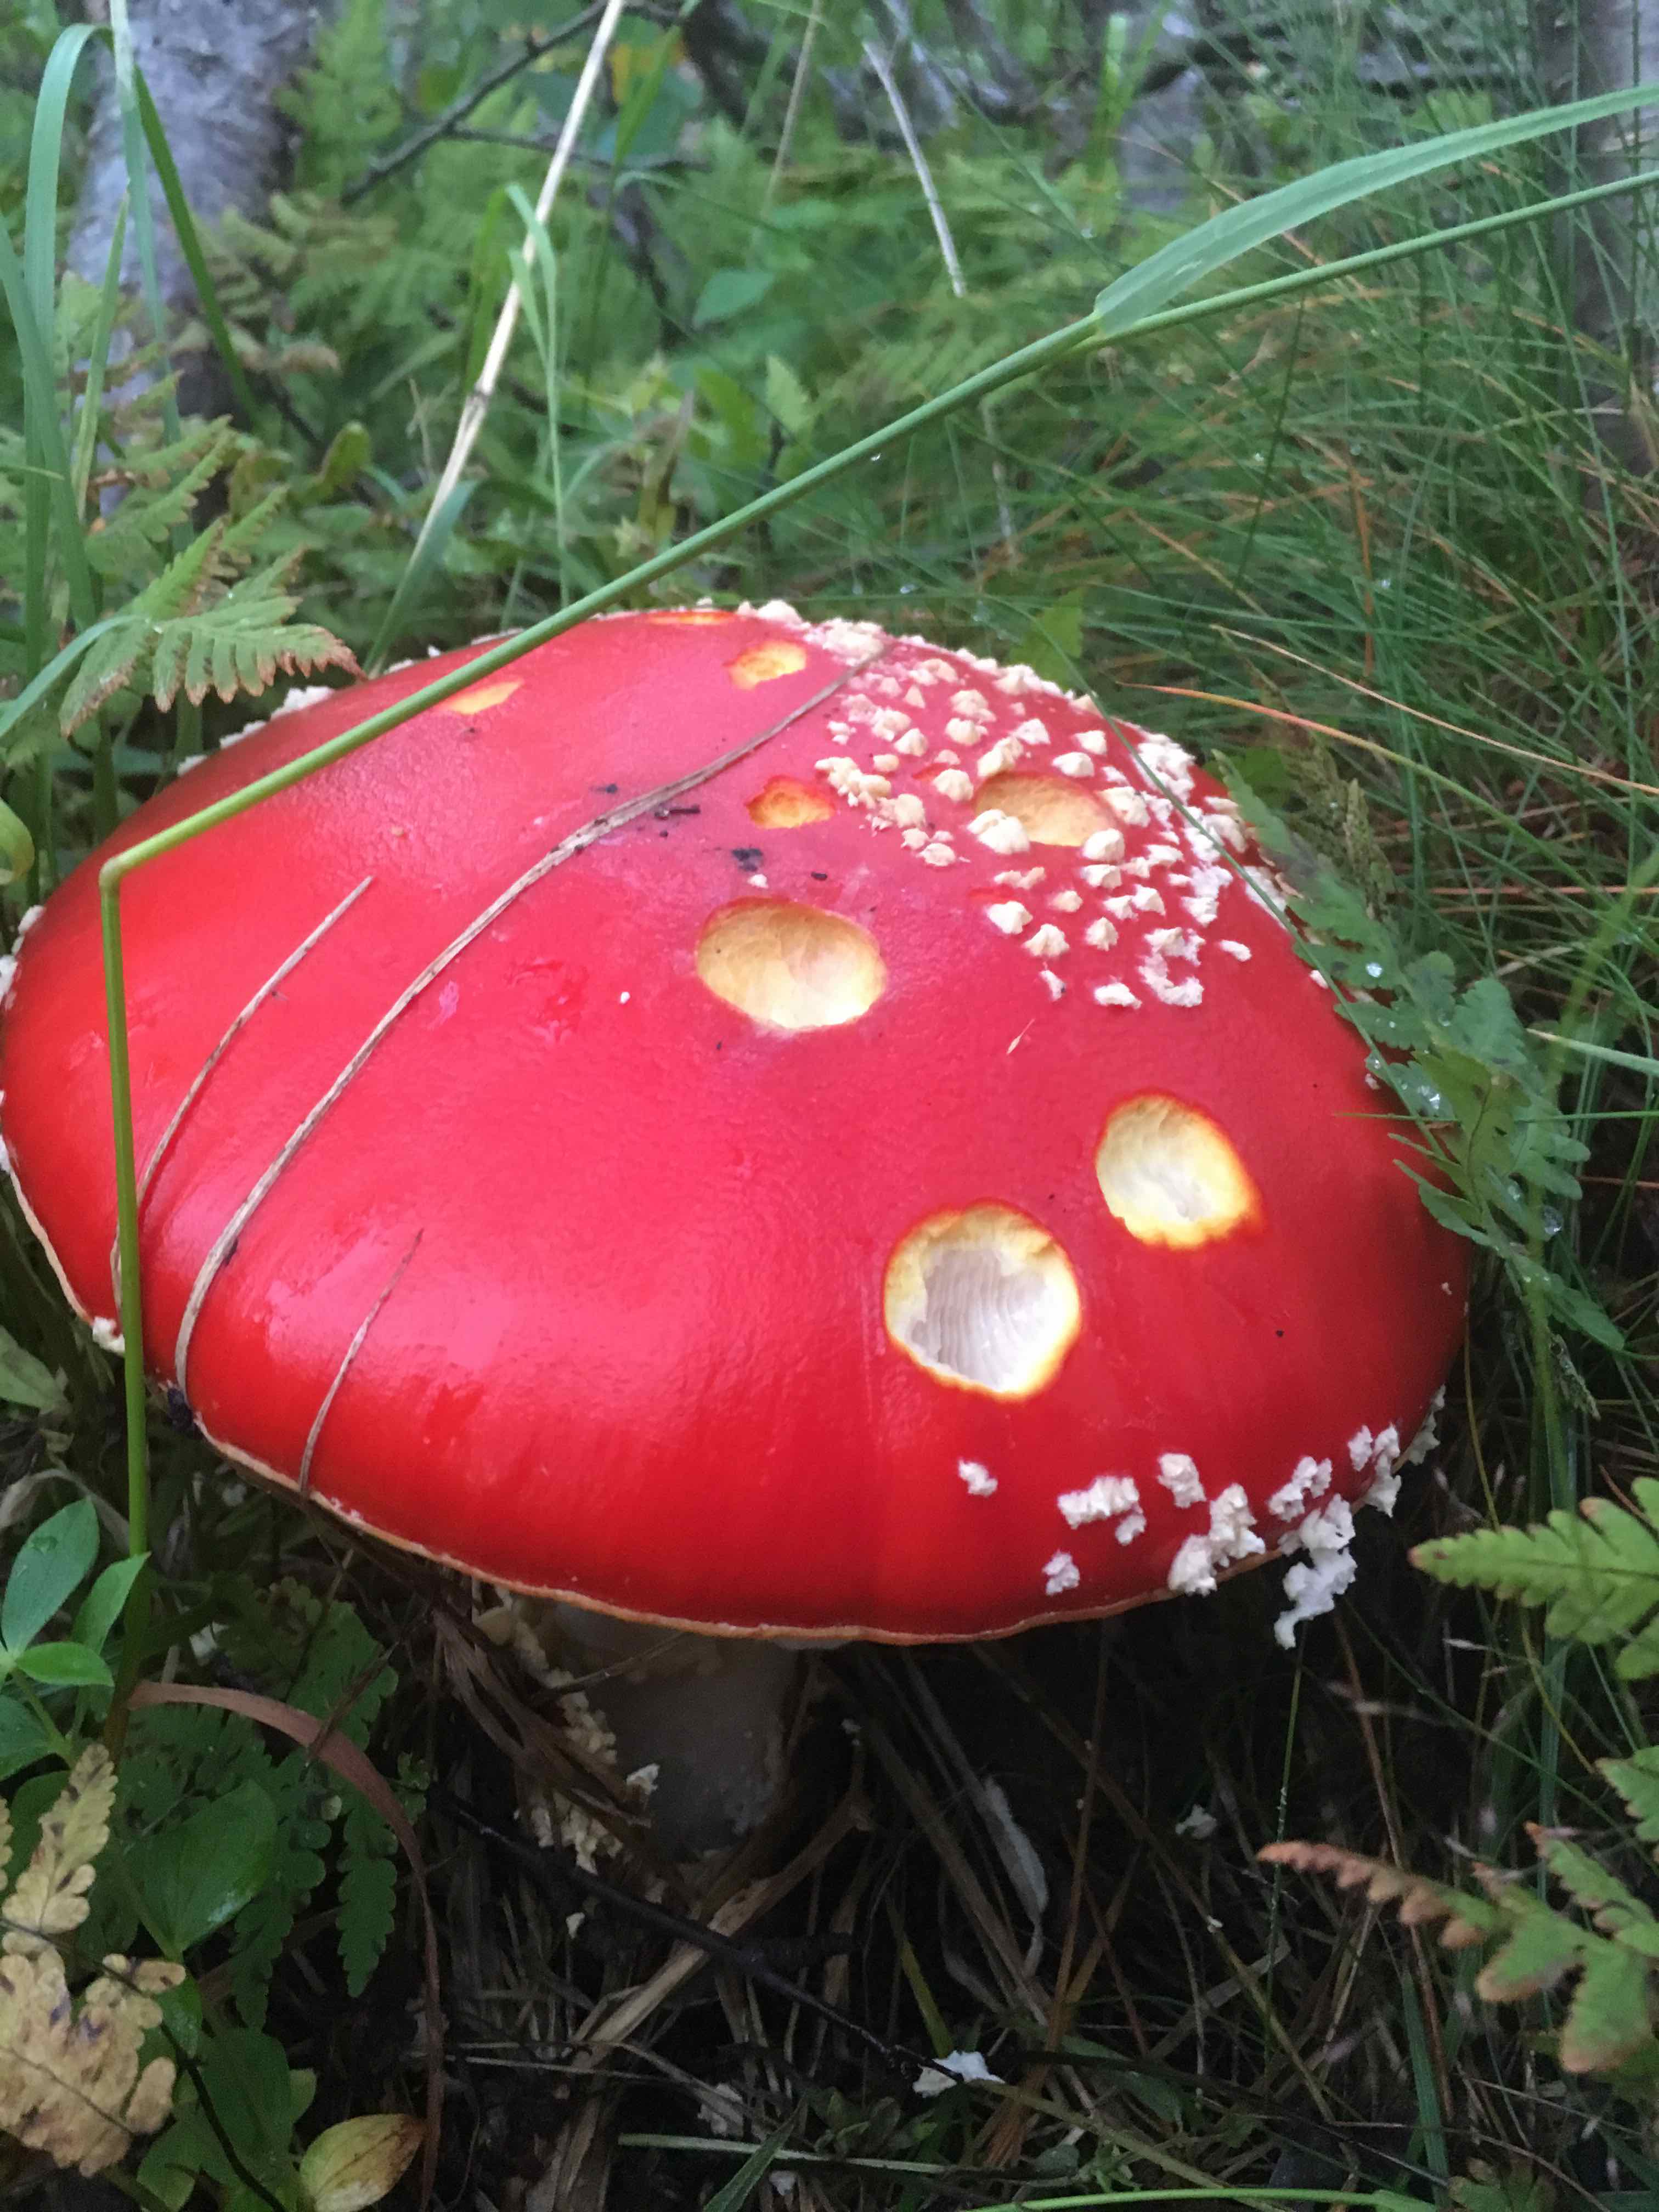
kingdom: Fungi
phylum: Basidiomycota
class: Agaricomycetes
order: Agaricales
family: Amanitaceae
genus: Amanita
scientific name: Amanita muscaria
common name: rød fluesvamp
